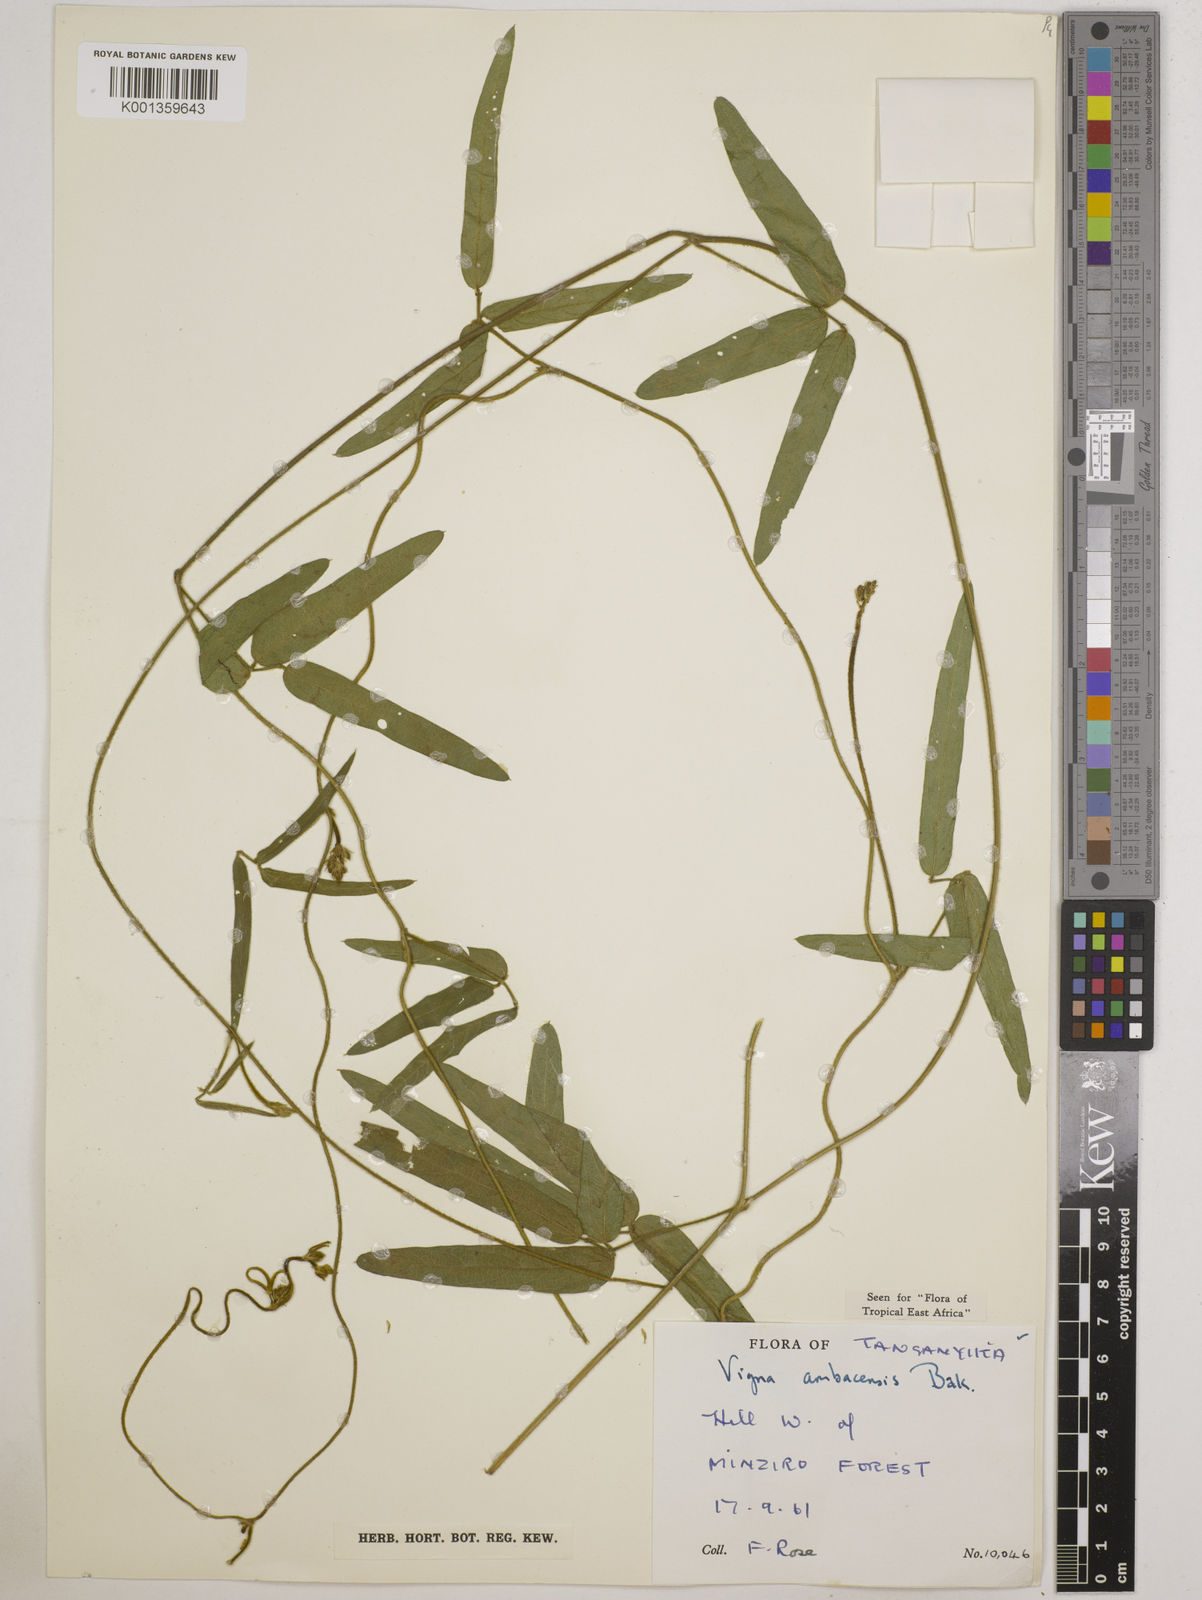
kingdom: Plantae
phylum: Tracheophyta
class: Magnoliopsida
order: Fabales
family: Fabaceae
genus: Vigna
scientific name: Vigna ambacensis
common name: Tsarkiyan zomo
